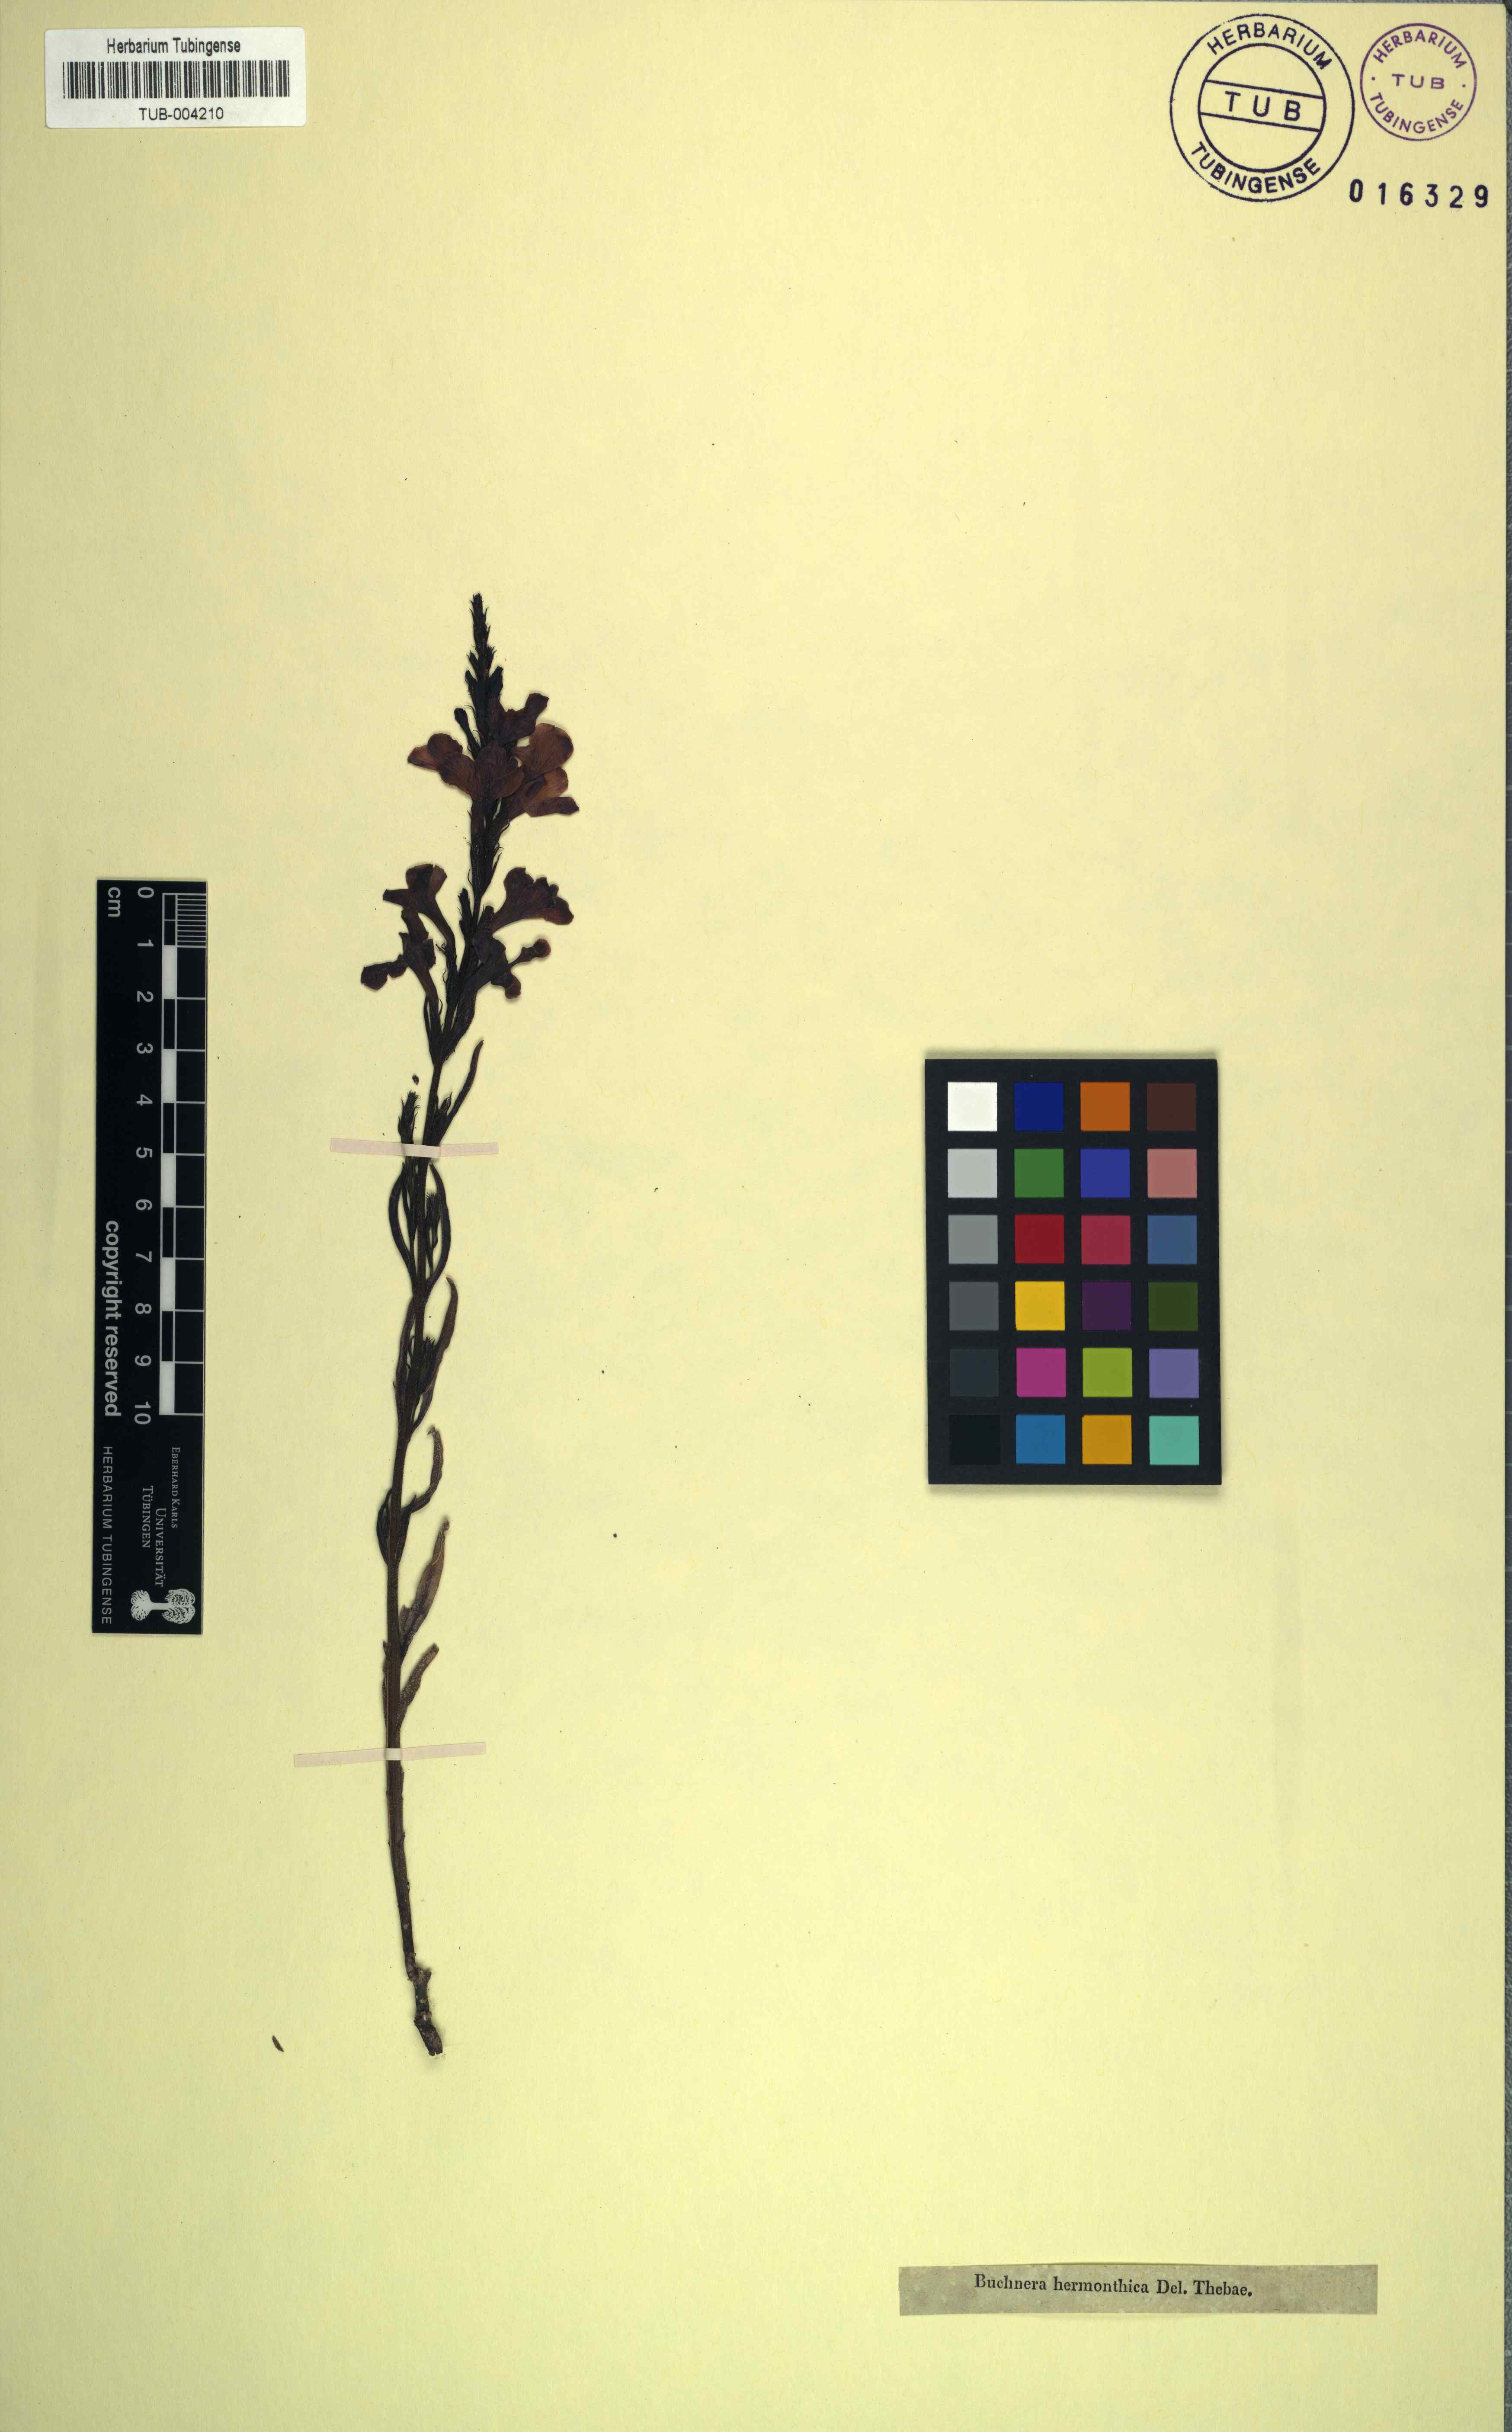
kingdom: Plantae
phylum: Tracheophyta
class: Magnoliopsida
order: Lamiales
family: Orobanchaceae
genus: Striga
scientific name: Striga hermonthica
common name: Purple witchweed
